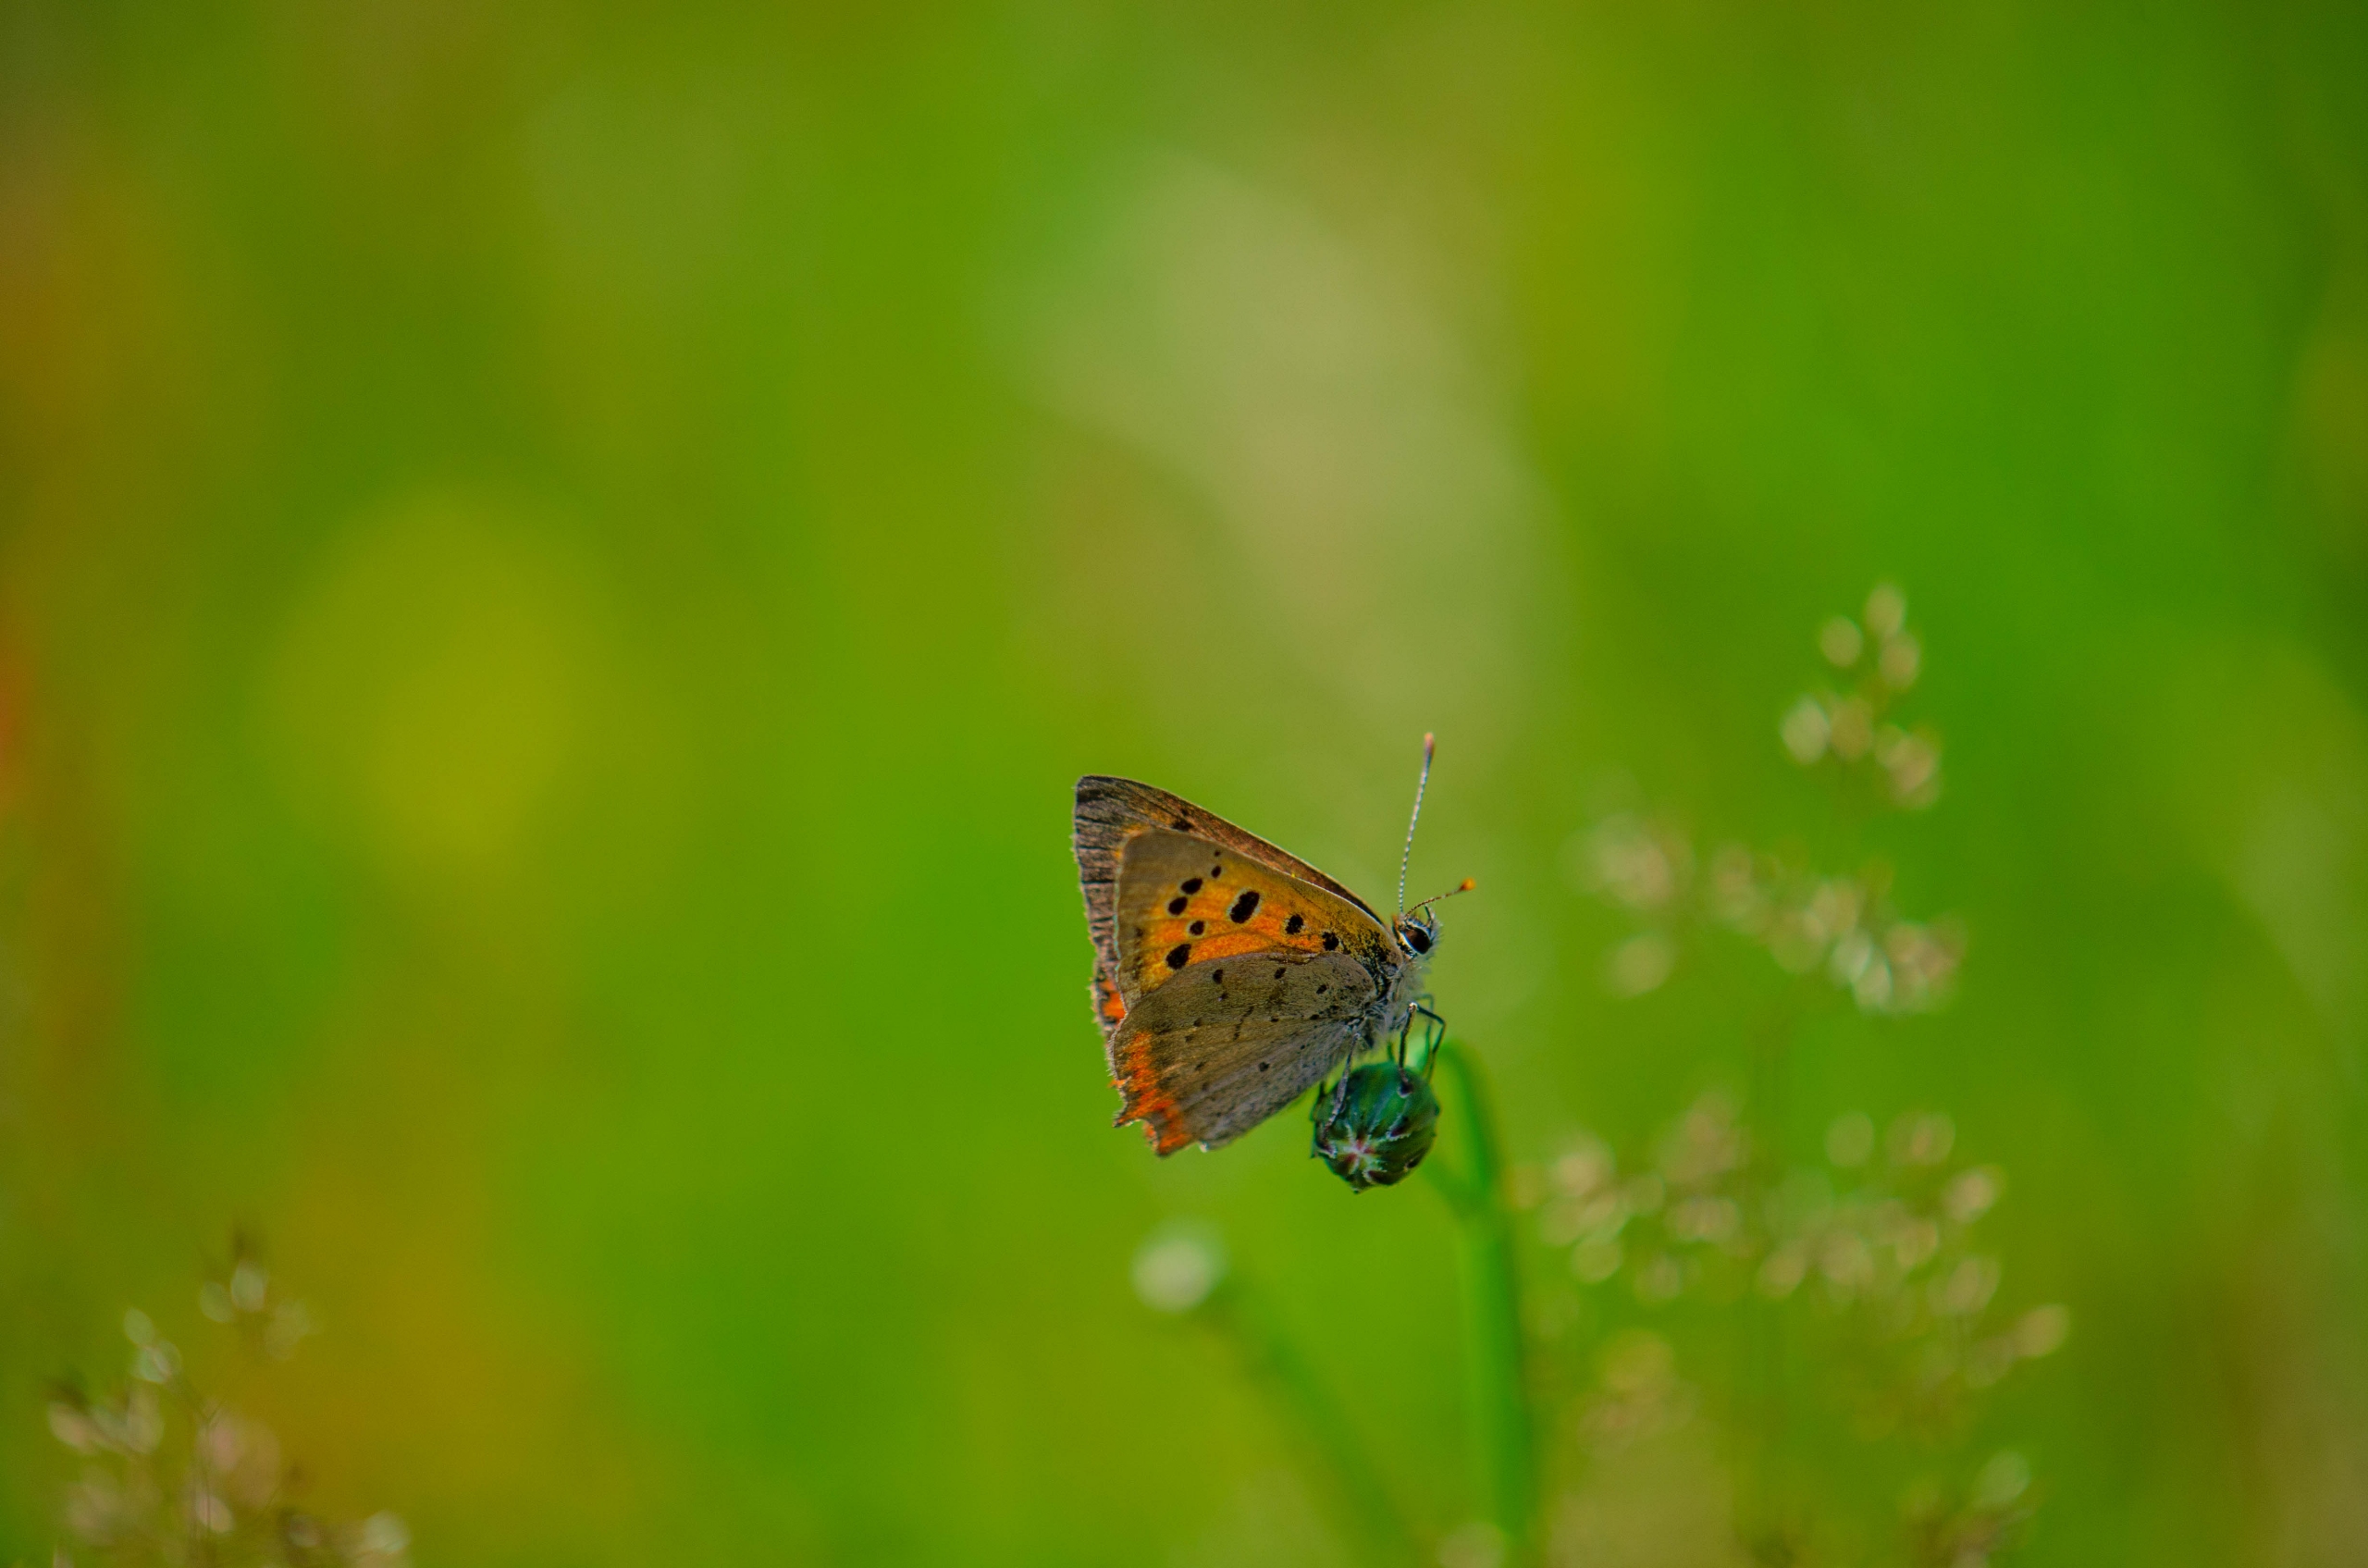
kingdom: Animalia
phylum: Arthropoda
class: Insecta
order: Lepidoptera
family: Lycaenidae
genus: Lycaena
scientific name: Lycaena phlaeas
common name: Lille ildfugl
